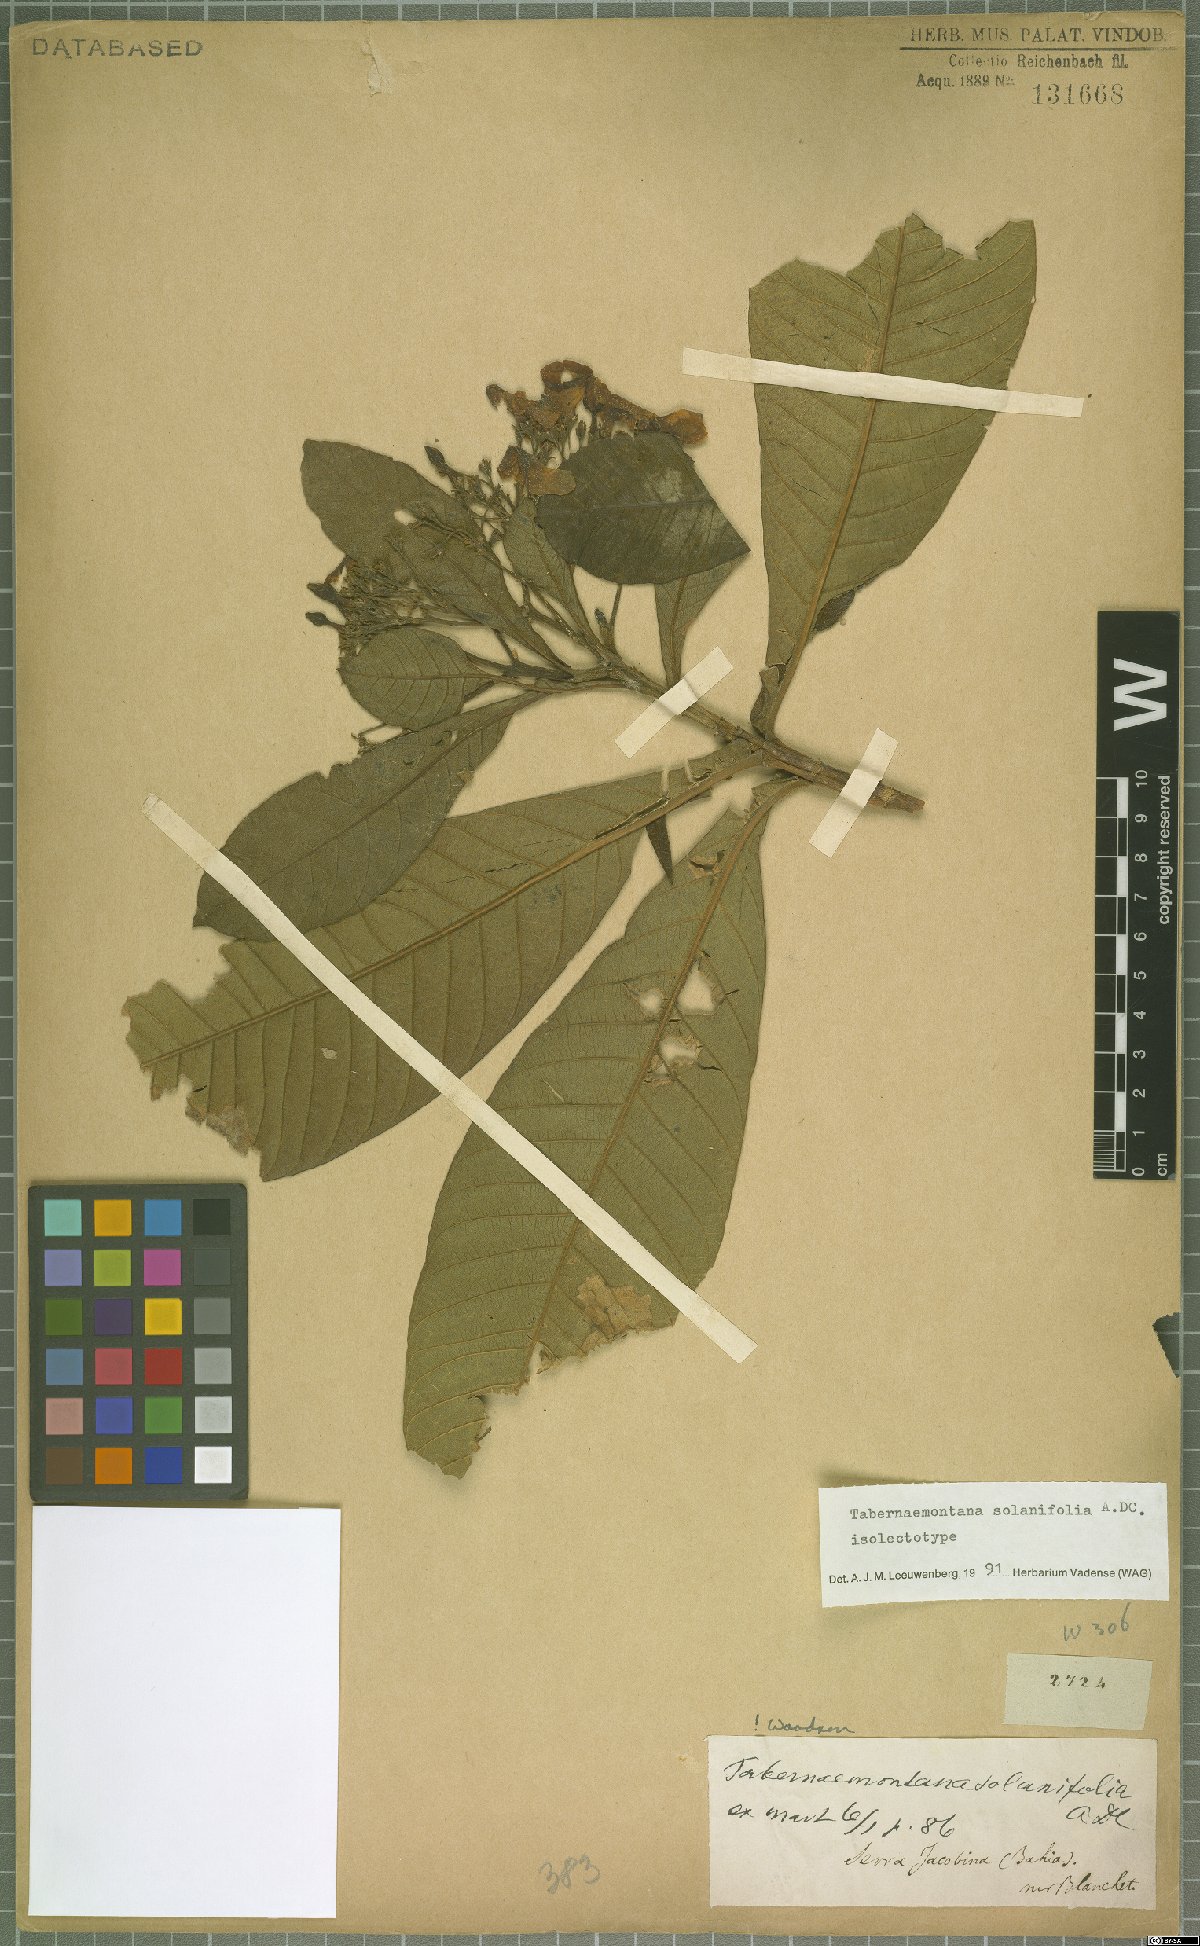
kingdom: Plantae
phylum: Tracheophyta
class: Magnoliopsida
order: Gentianales
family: Apocynaceae
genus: Tabernaemontana
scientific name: Tabernaemontana solanifolia
